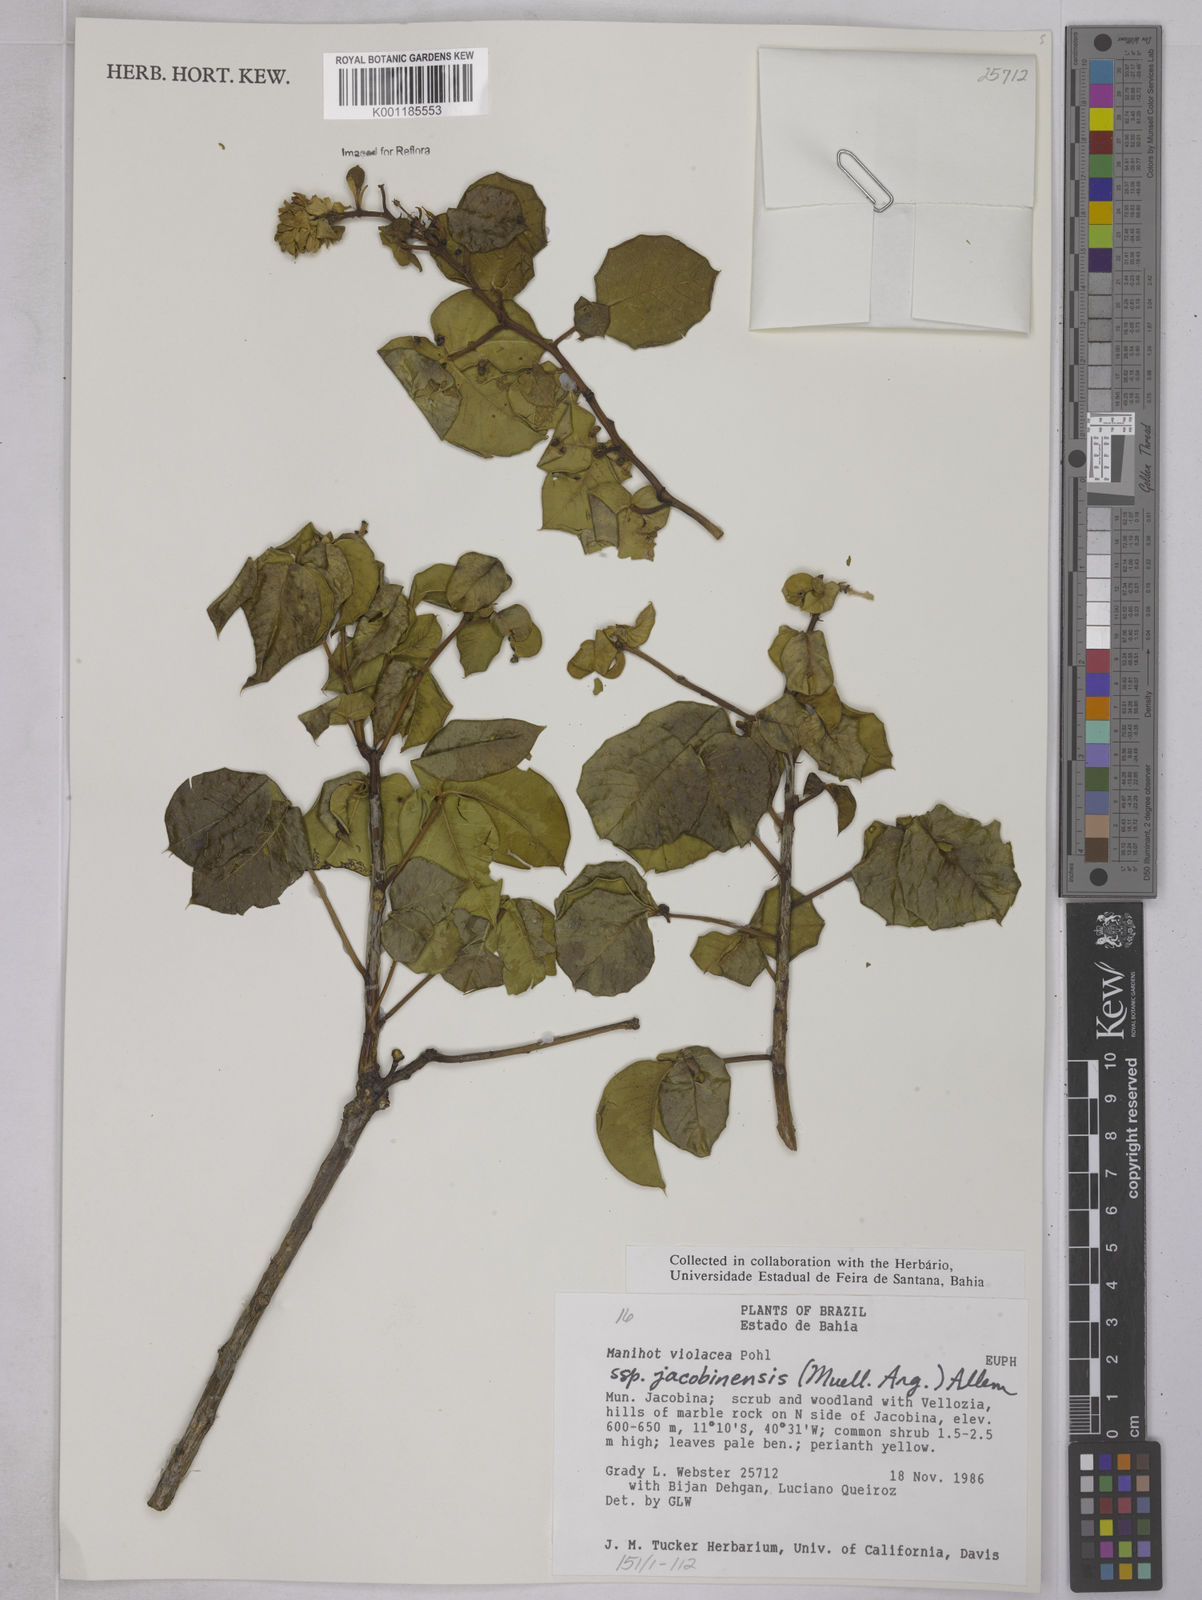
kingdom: Plantae
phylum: Tracheophyta
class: Magnoliopsida
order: Malpighiales
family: Euphorbiaceae
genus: Manihot
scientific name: Manihot
